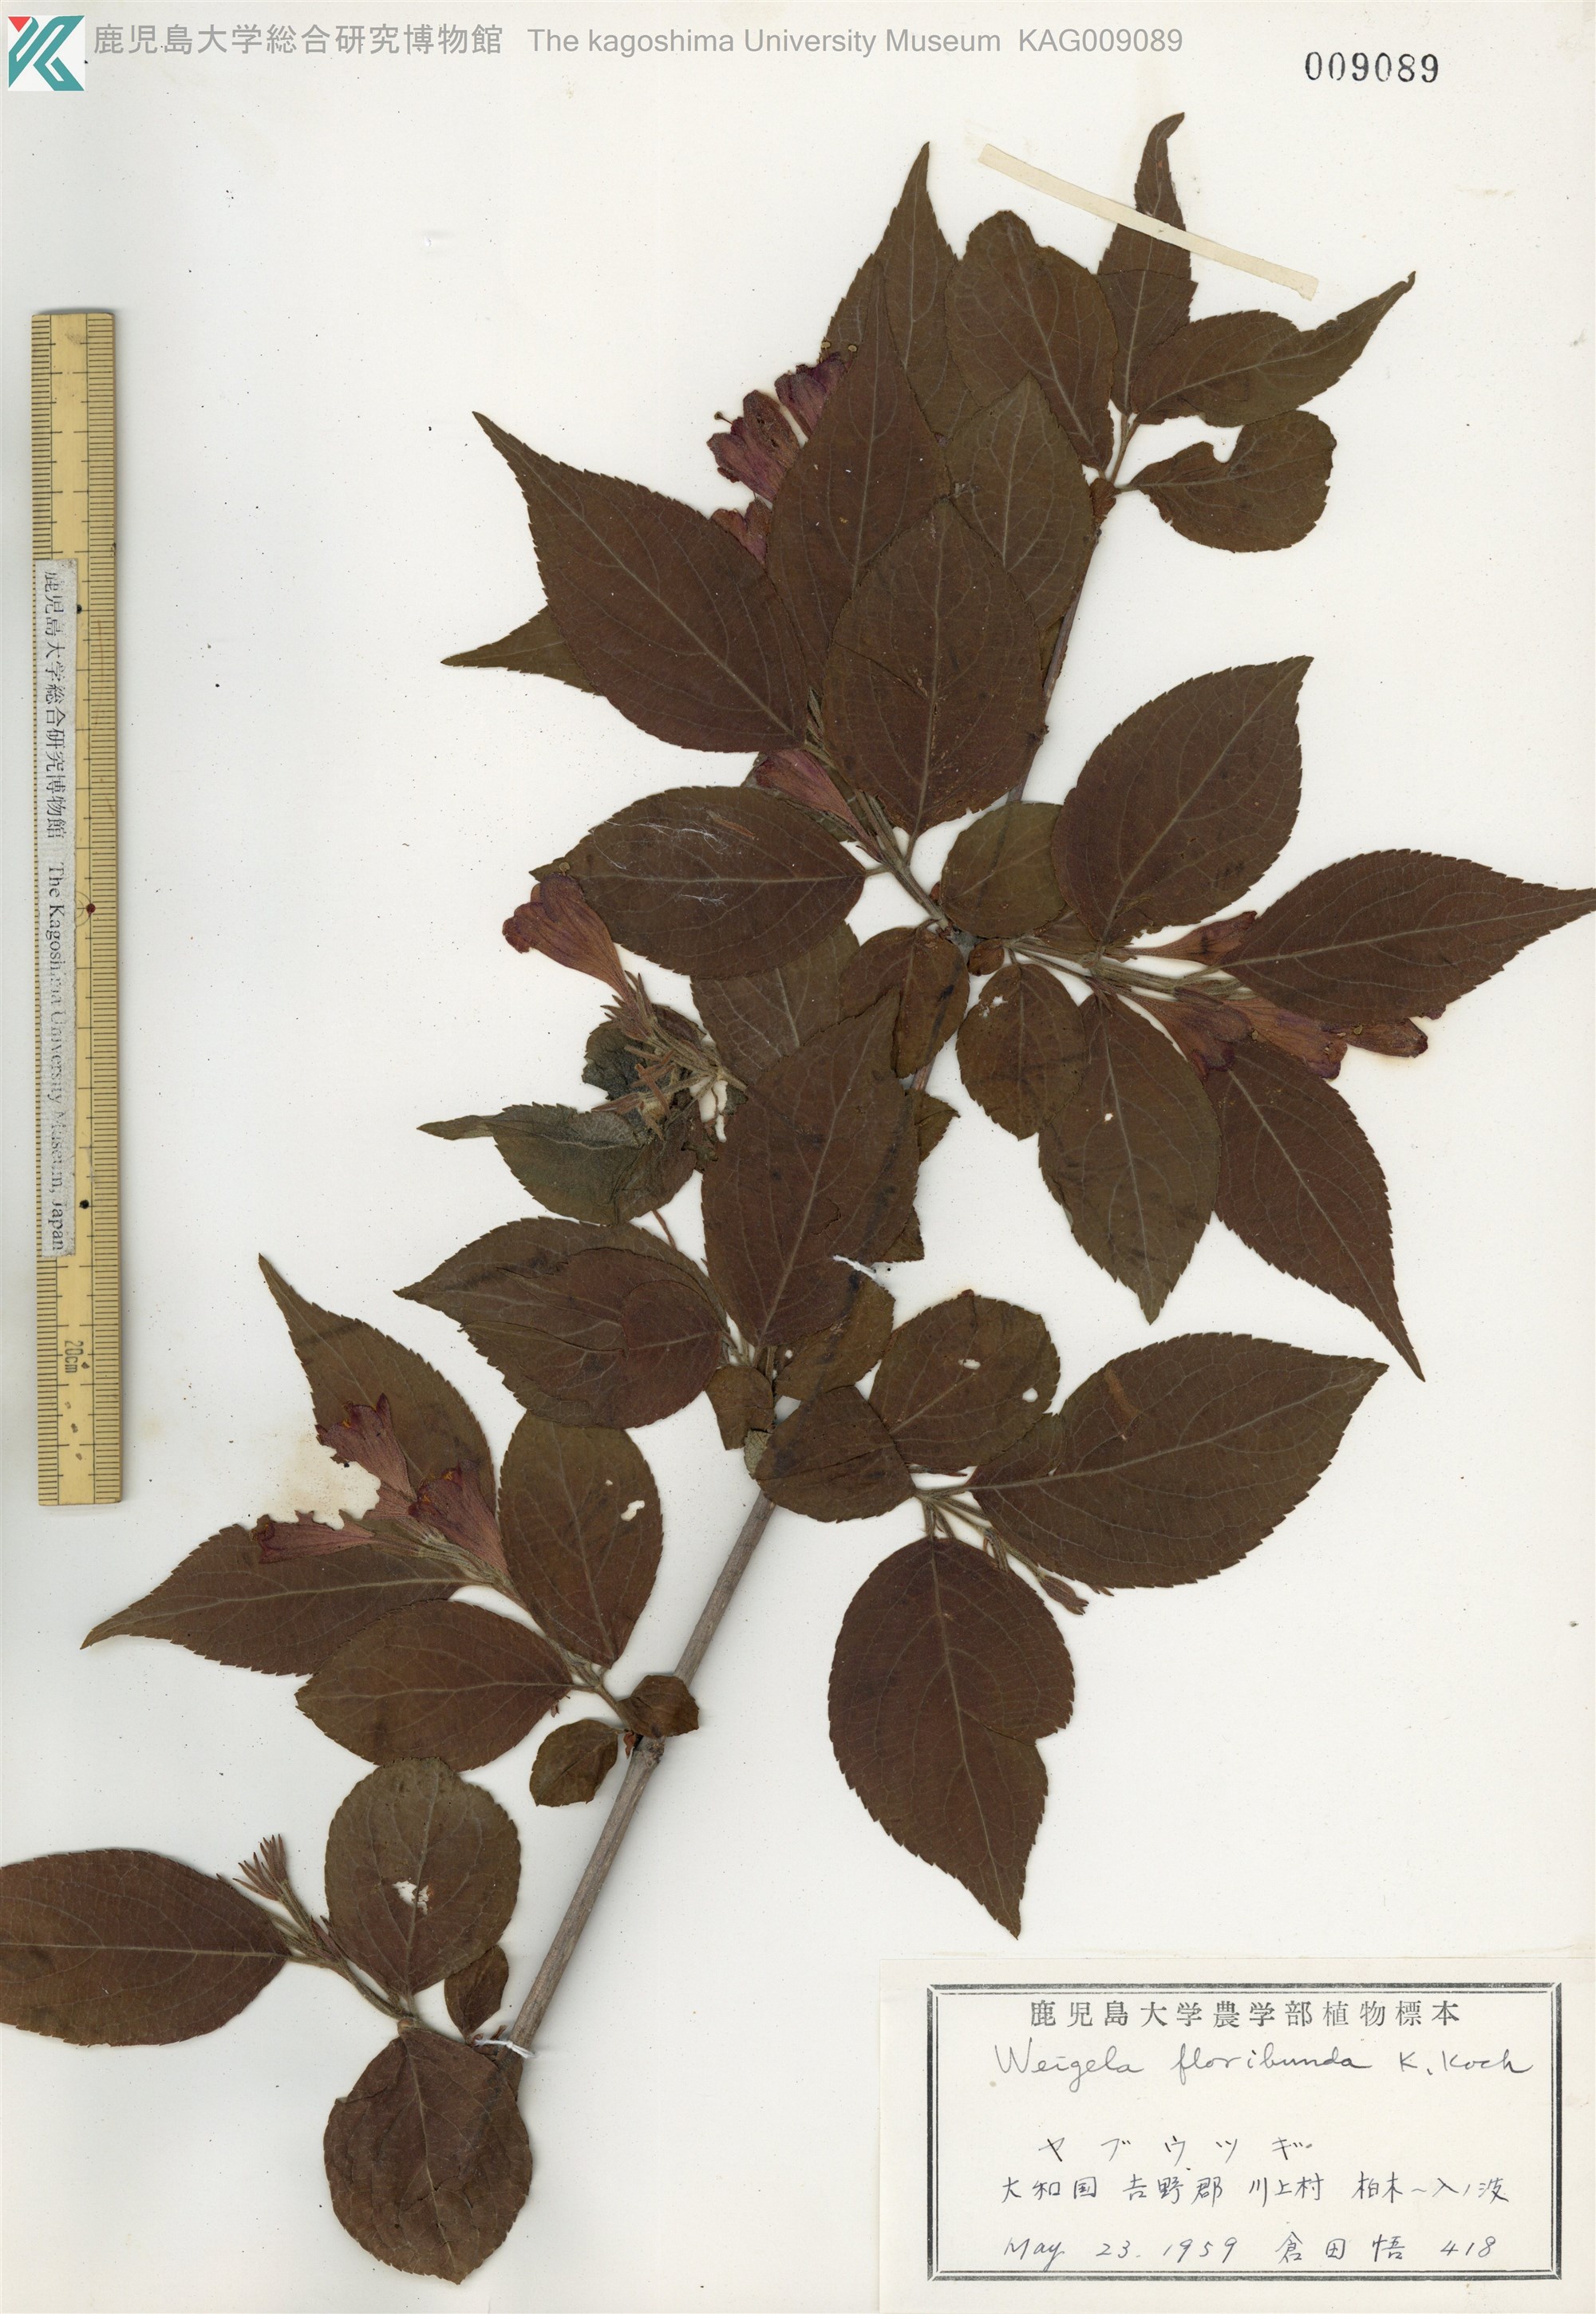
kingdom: Plantae
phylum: Tracheophyta
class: Magnoliopsida
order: Dipsacales
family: Caprifoliaceae
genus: Weigela
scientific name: Weigela floribunda
